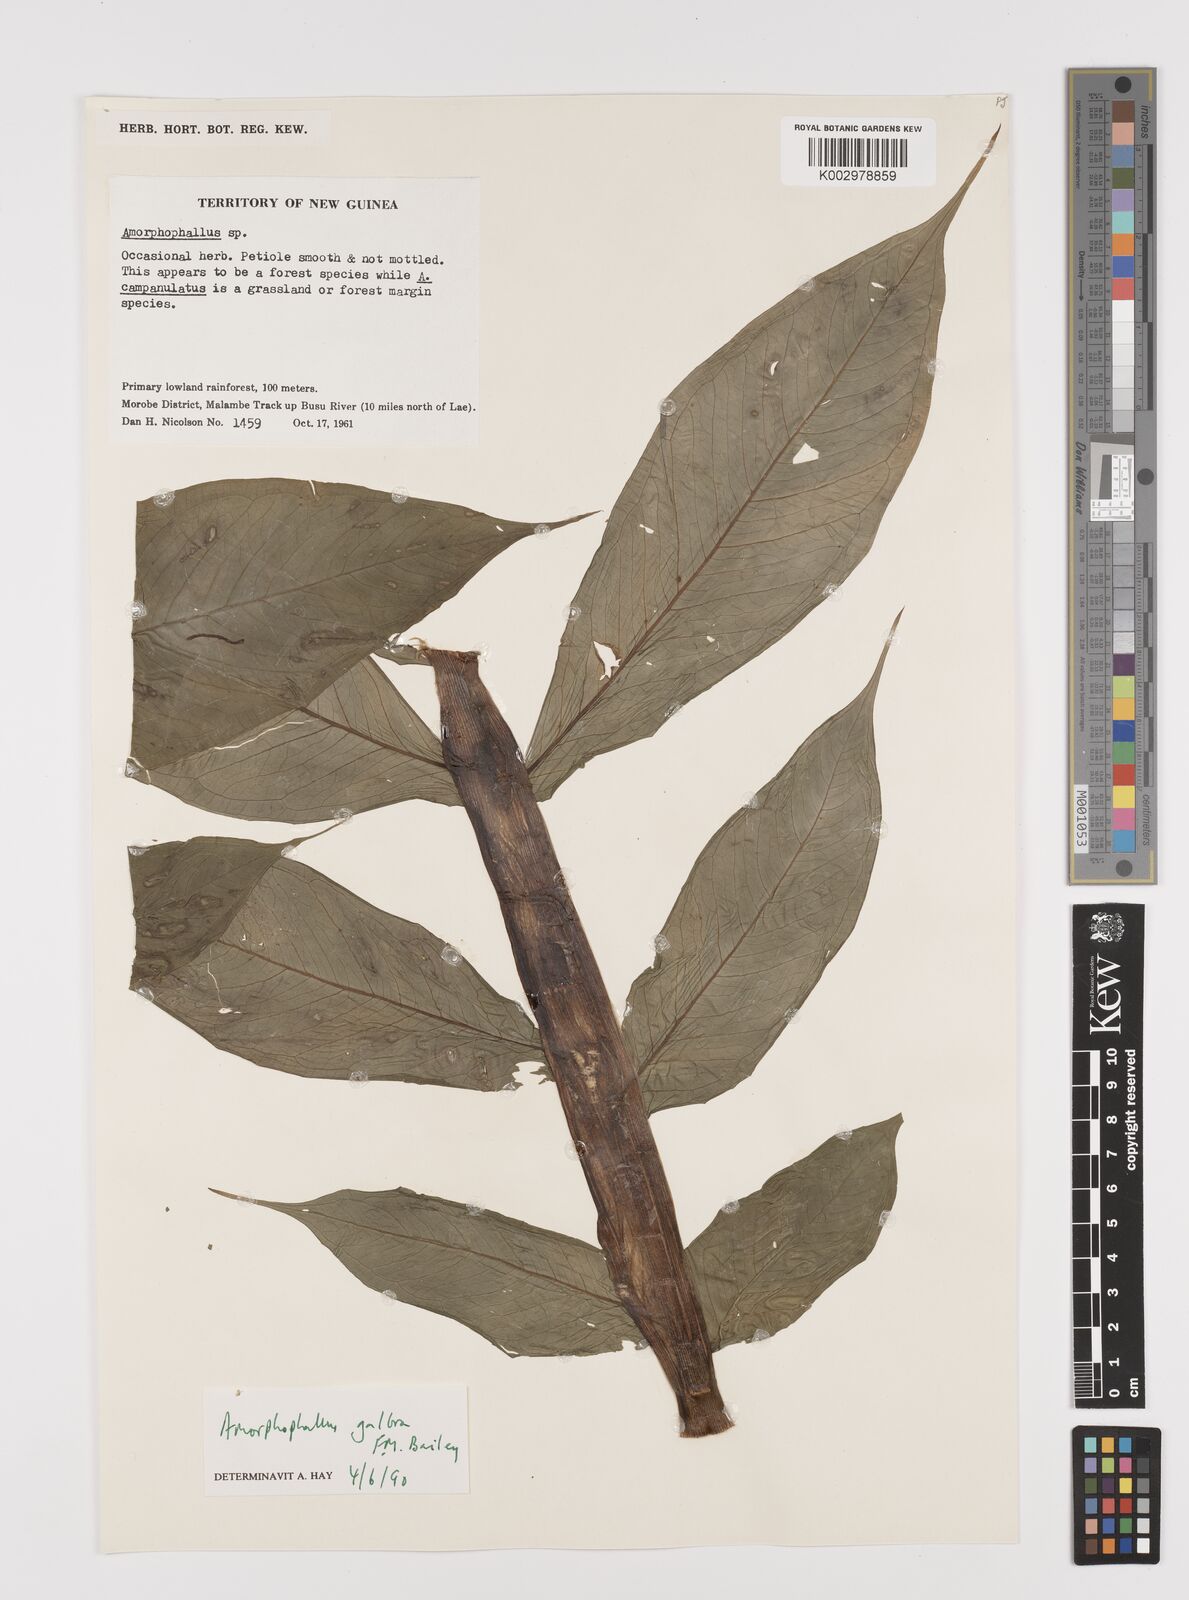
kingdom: Plantae
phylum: Tracheophyta
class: Liliopsida
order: Alismatales
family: Araceae
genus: Amorphophallus
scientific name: Amorphophallus galbra
